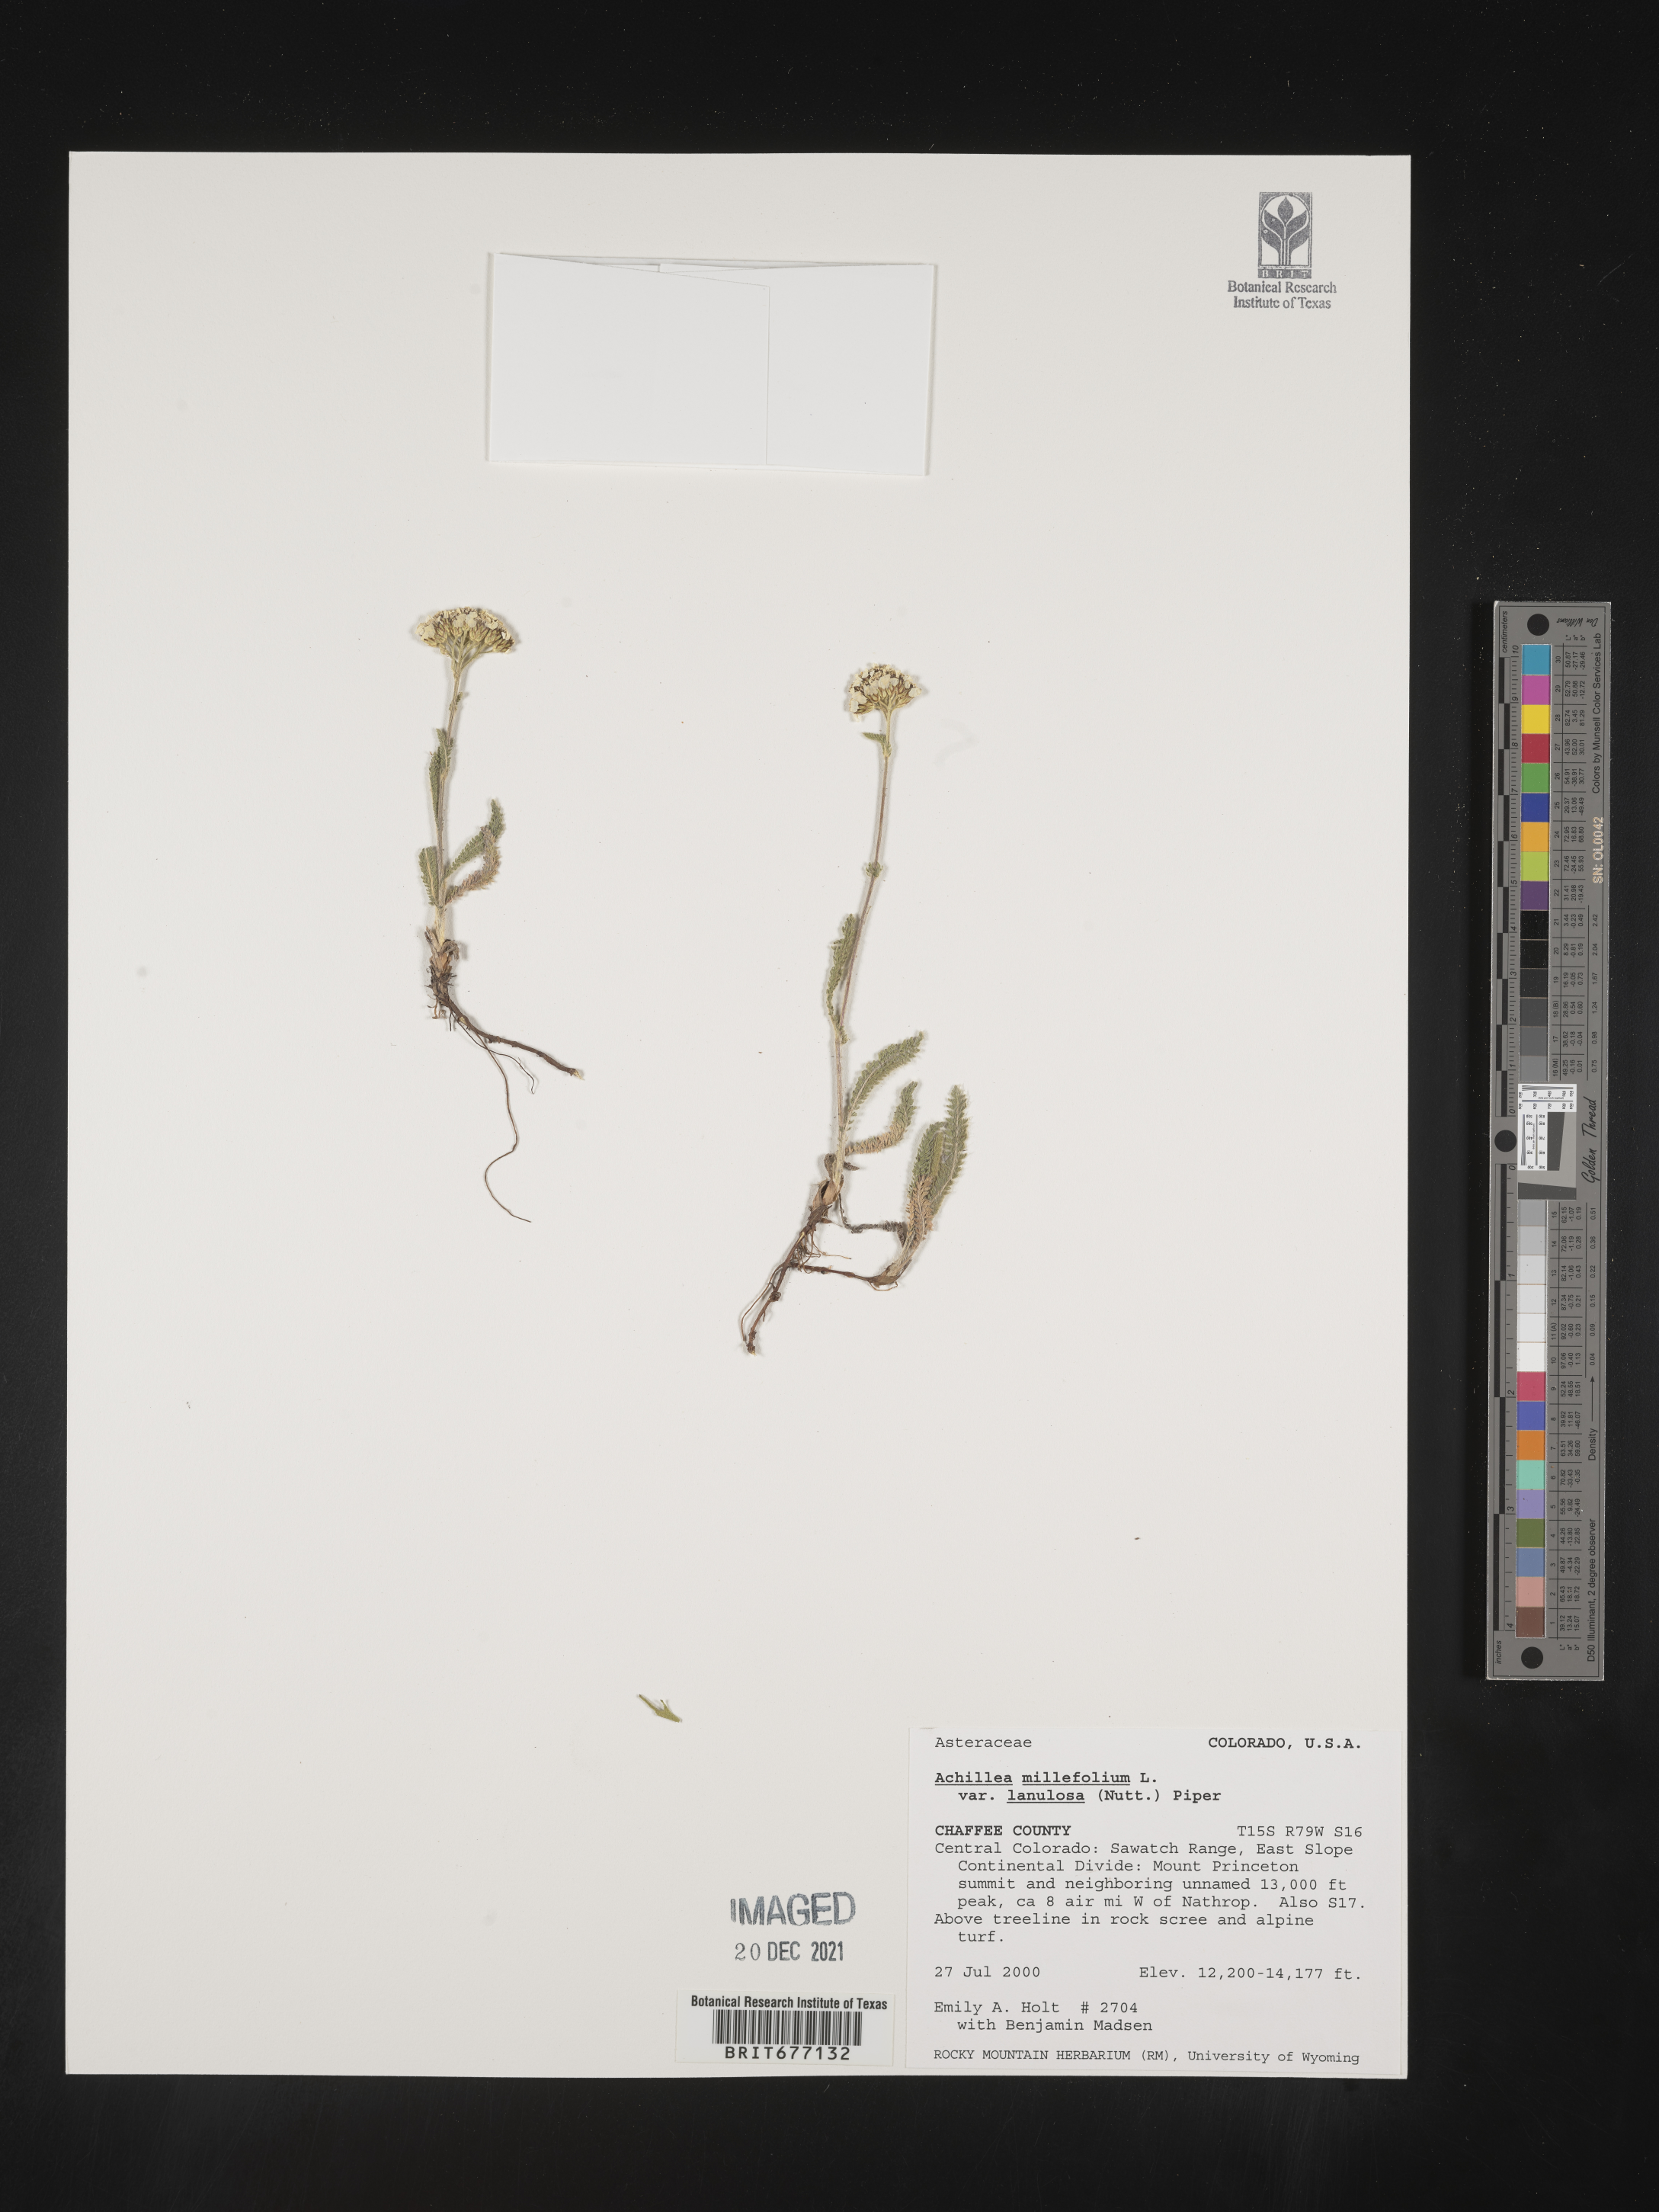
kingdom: Plantae
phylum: Tracheophyta
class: Magnoliopsida
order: Asterales
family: Asteraceae
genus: Achillea
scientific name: Achillea millefolium
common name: Yarrow
